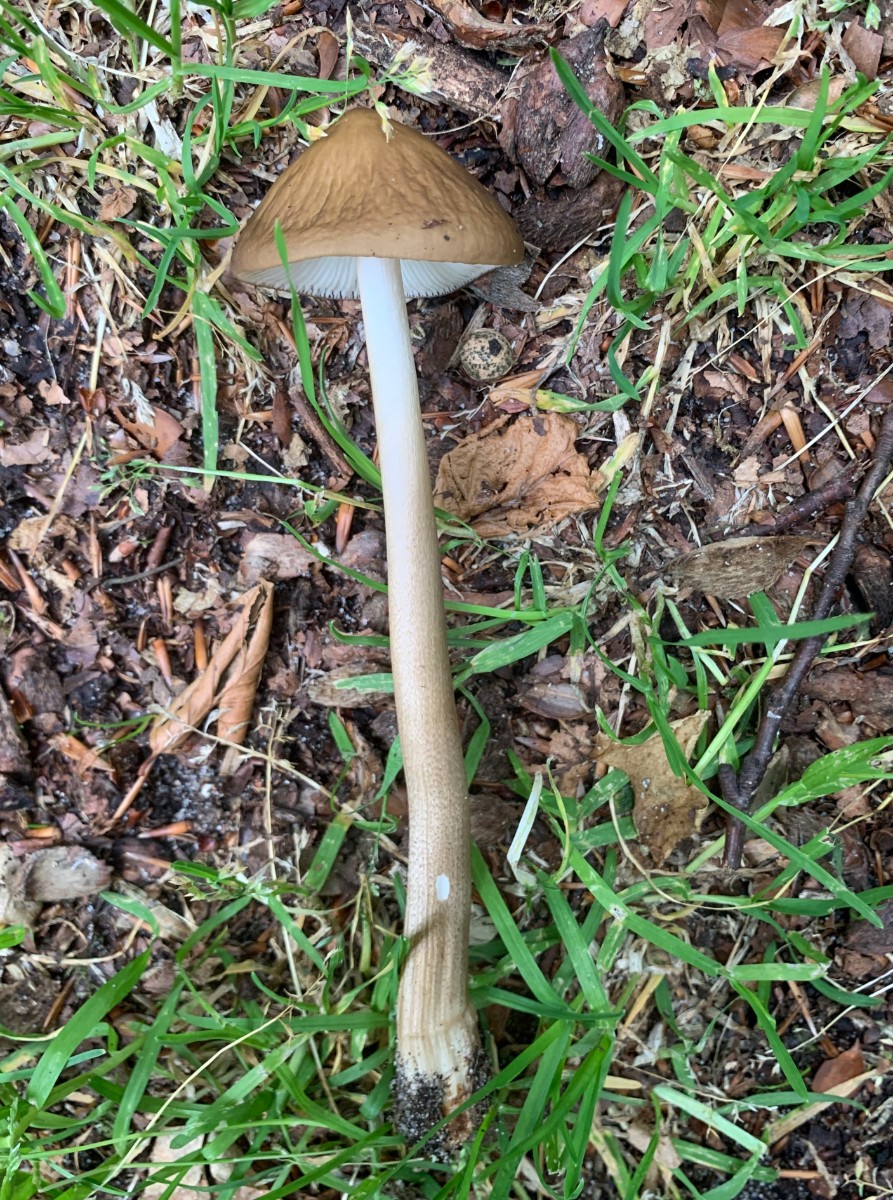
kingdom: Fungi
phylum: Basidiomycota
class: Agaricomycetes
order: Agaricales
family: Physalacriaceae
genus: Hymenopellis
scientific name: Hymenopellis radicata
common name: almindelig pælerodshat
